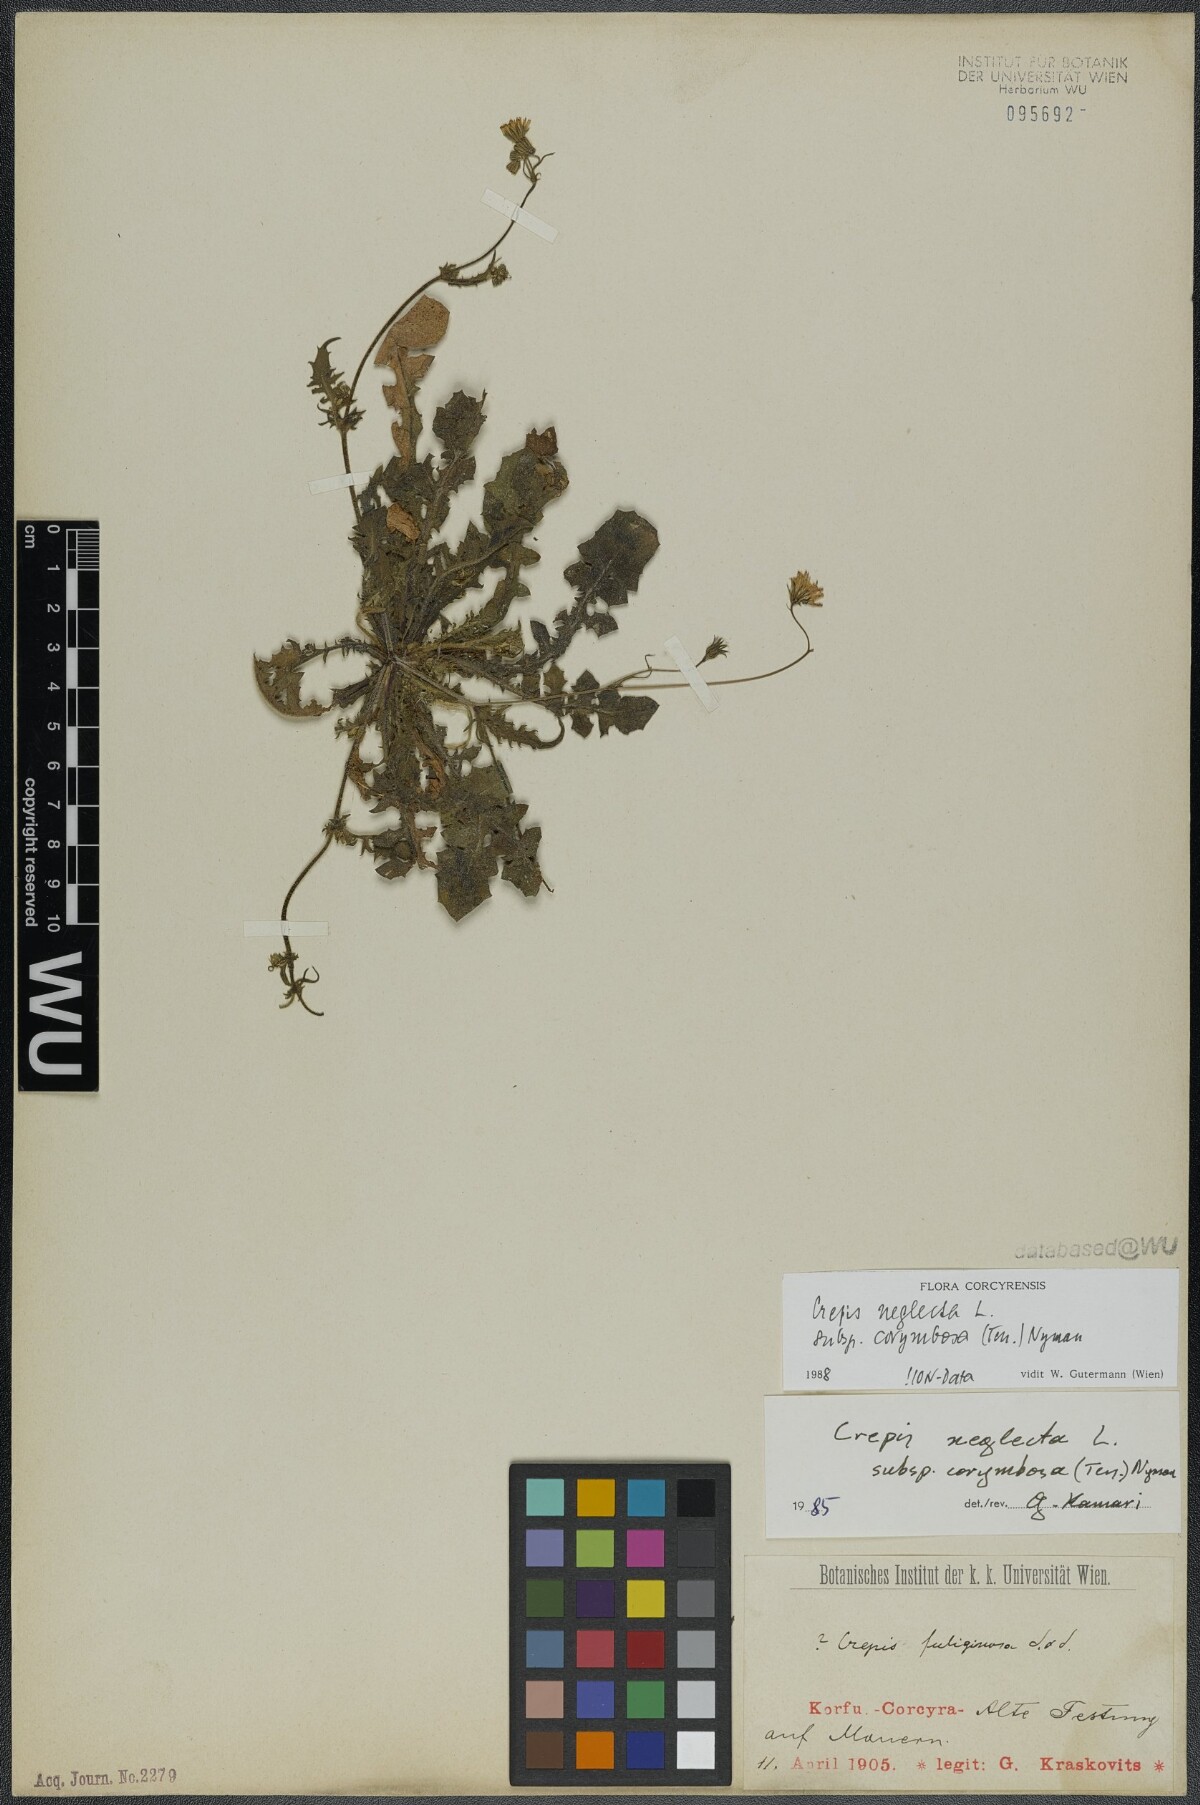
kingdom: Plantae
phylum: Tracheophyta
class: Magnoliopsida
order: Asterales
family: Asteraceae
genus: Crepis
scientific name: Crepis neglecta
